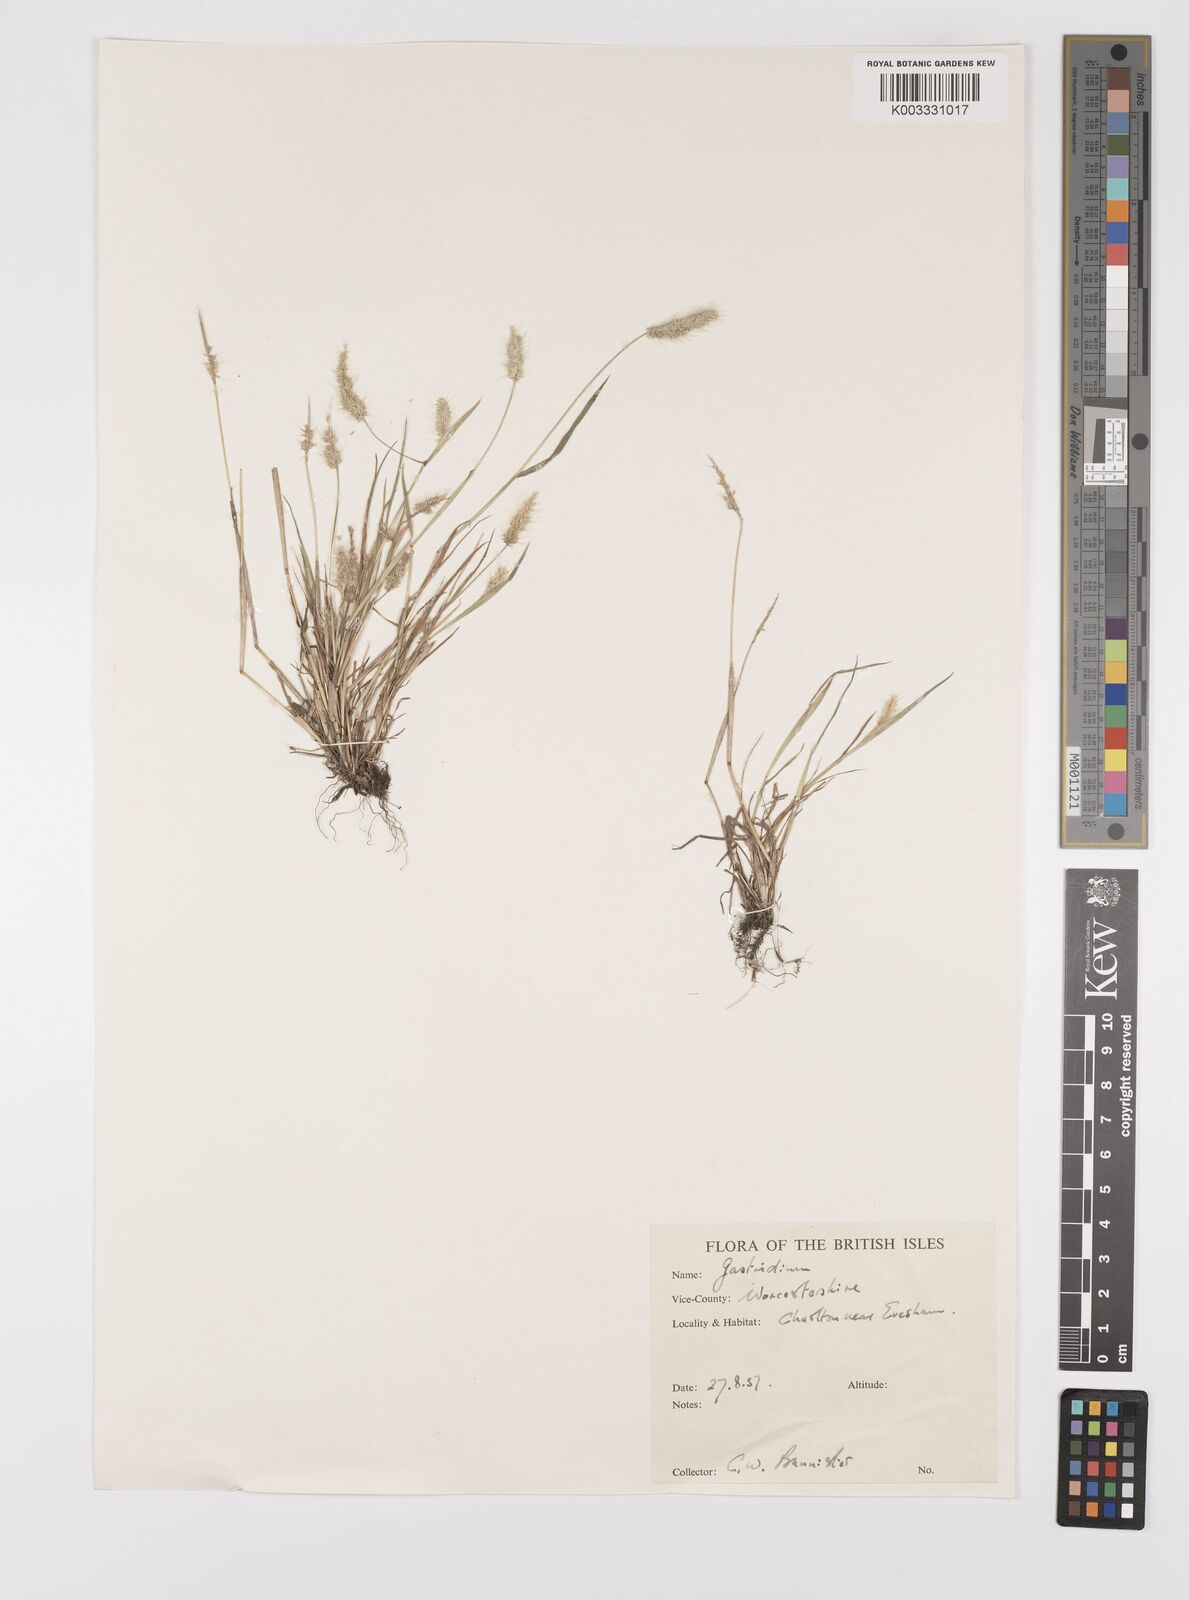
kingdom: Plantae
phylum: Tracheophyta
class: Liliopsida
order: Poales
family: Poaceae
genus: Polypogon
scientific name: Polypogon monspeliensis
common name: Annual rabbitsfoot grass
